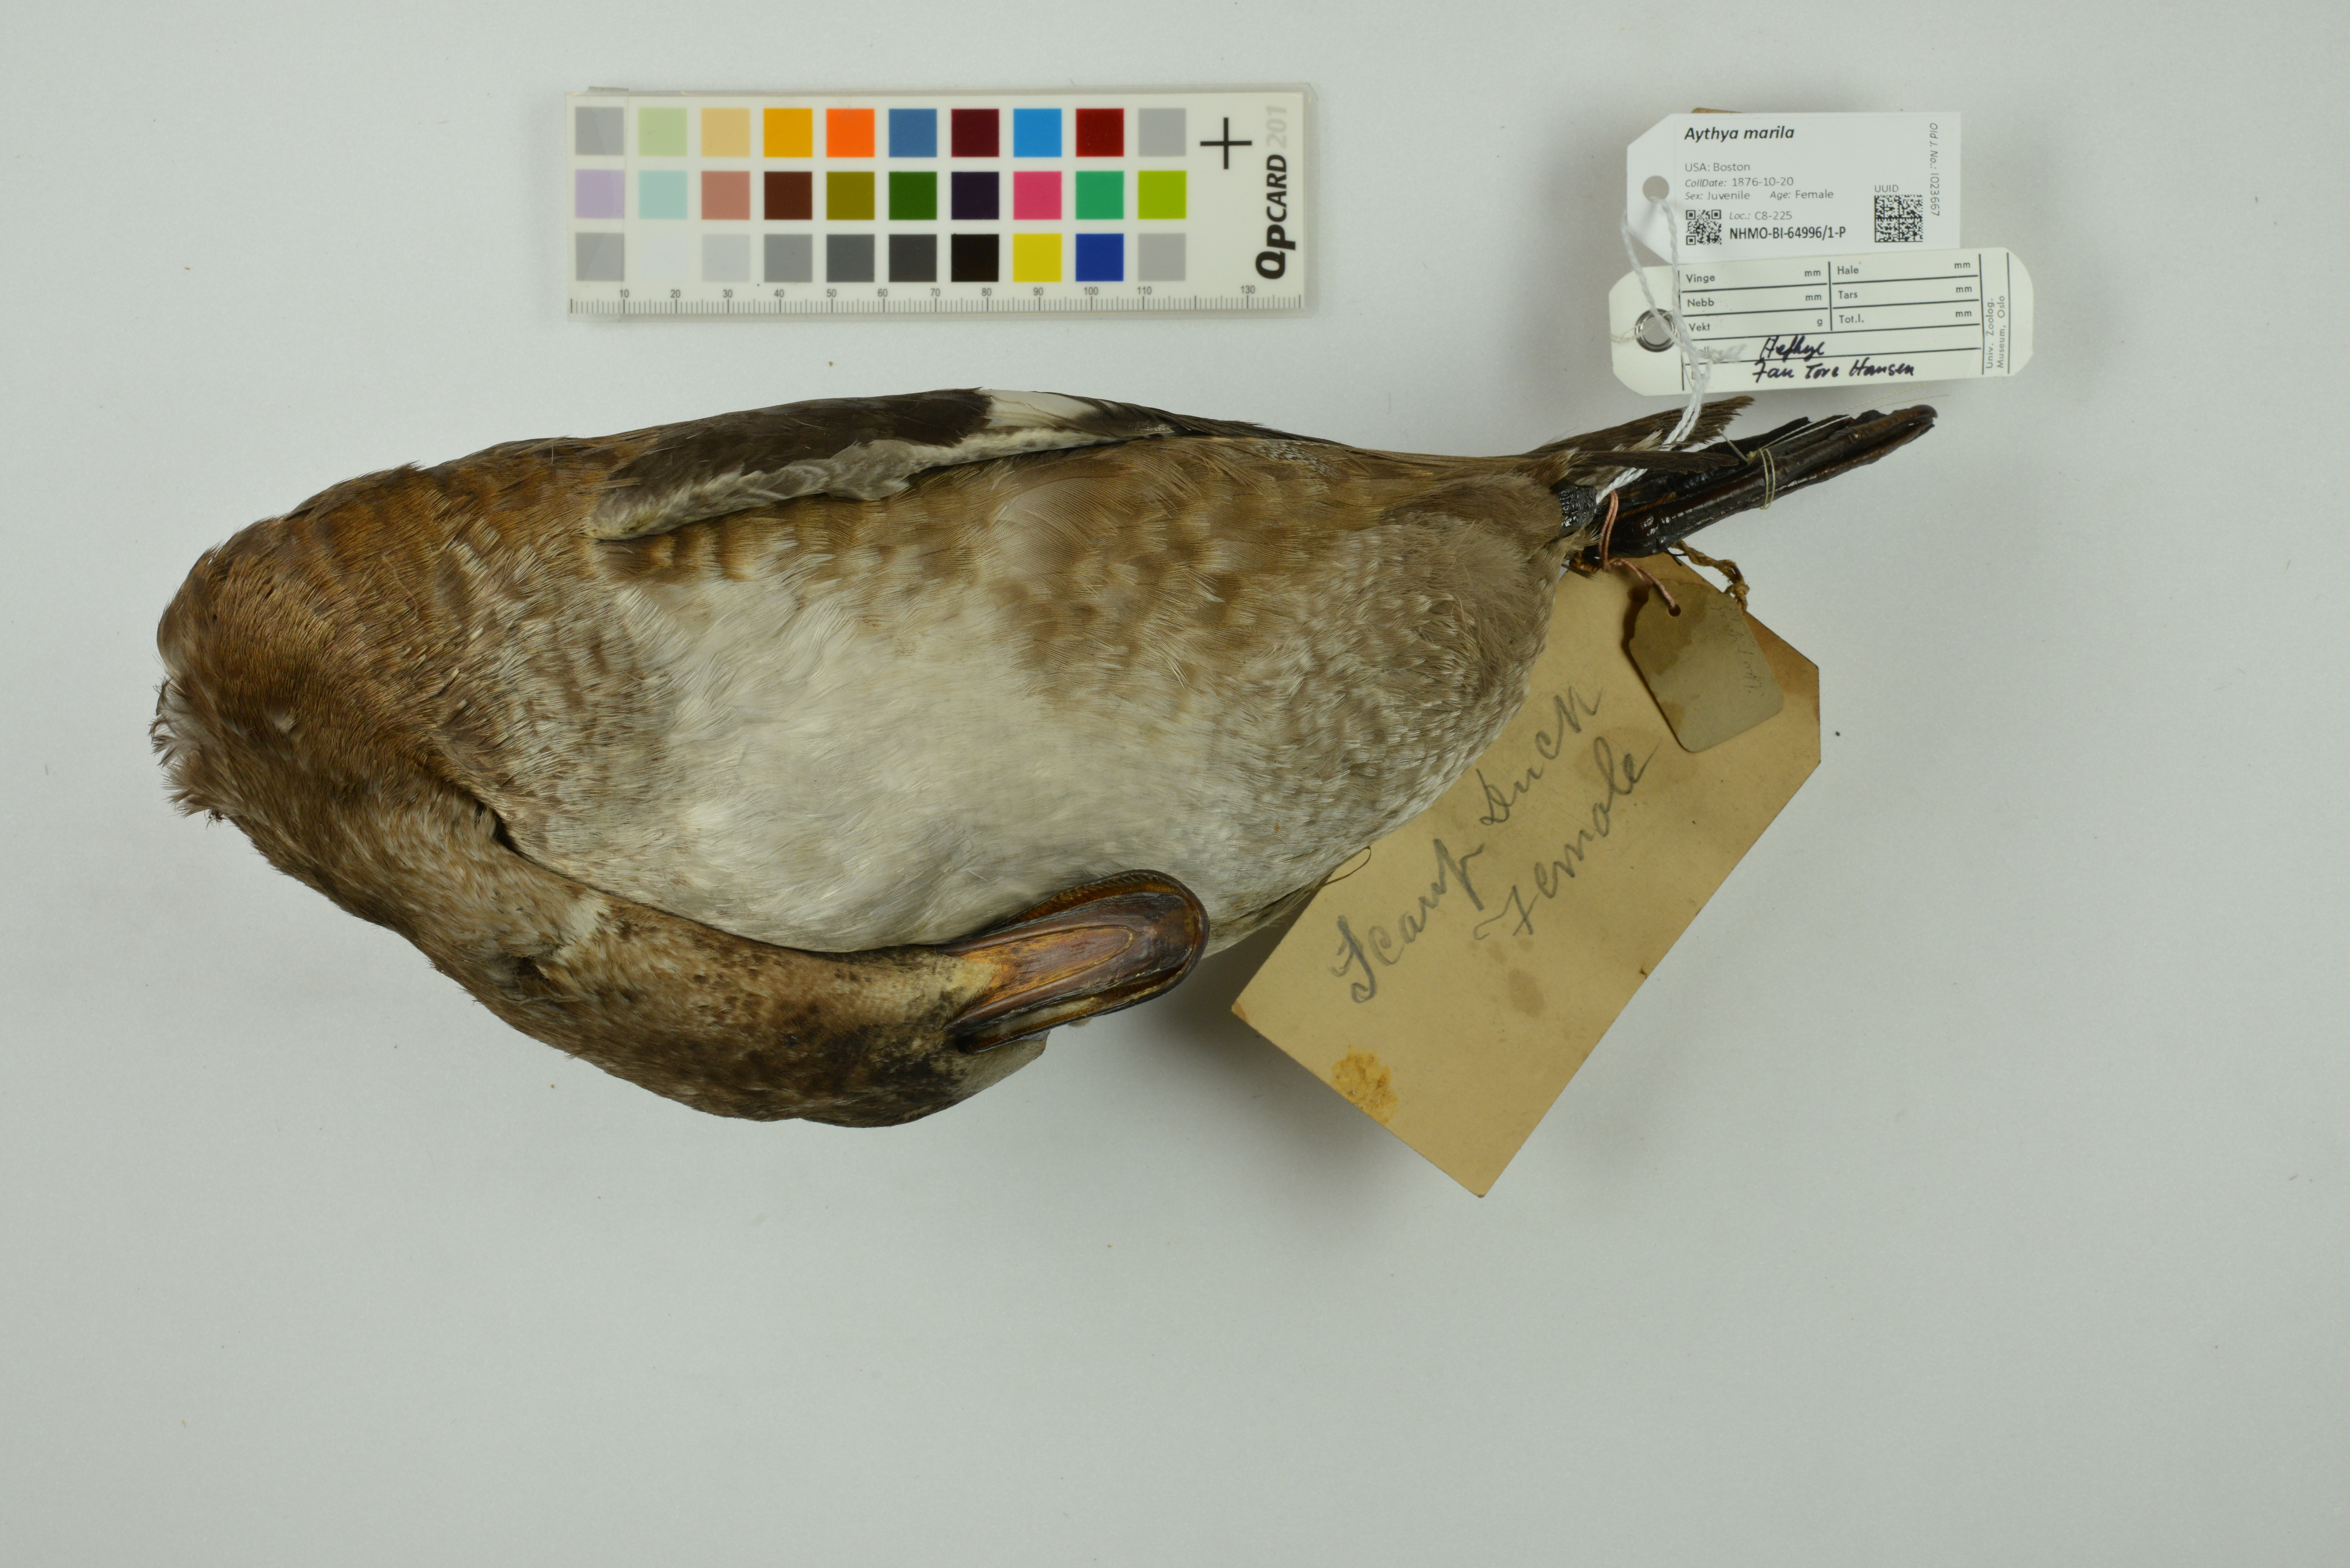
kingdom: Animalia
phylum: Chordata
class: Aves
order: Anseriformes
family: Anatidae
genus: Aythya
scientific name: Aythya marila
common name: Greater scaup
